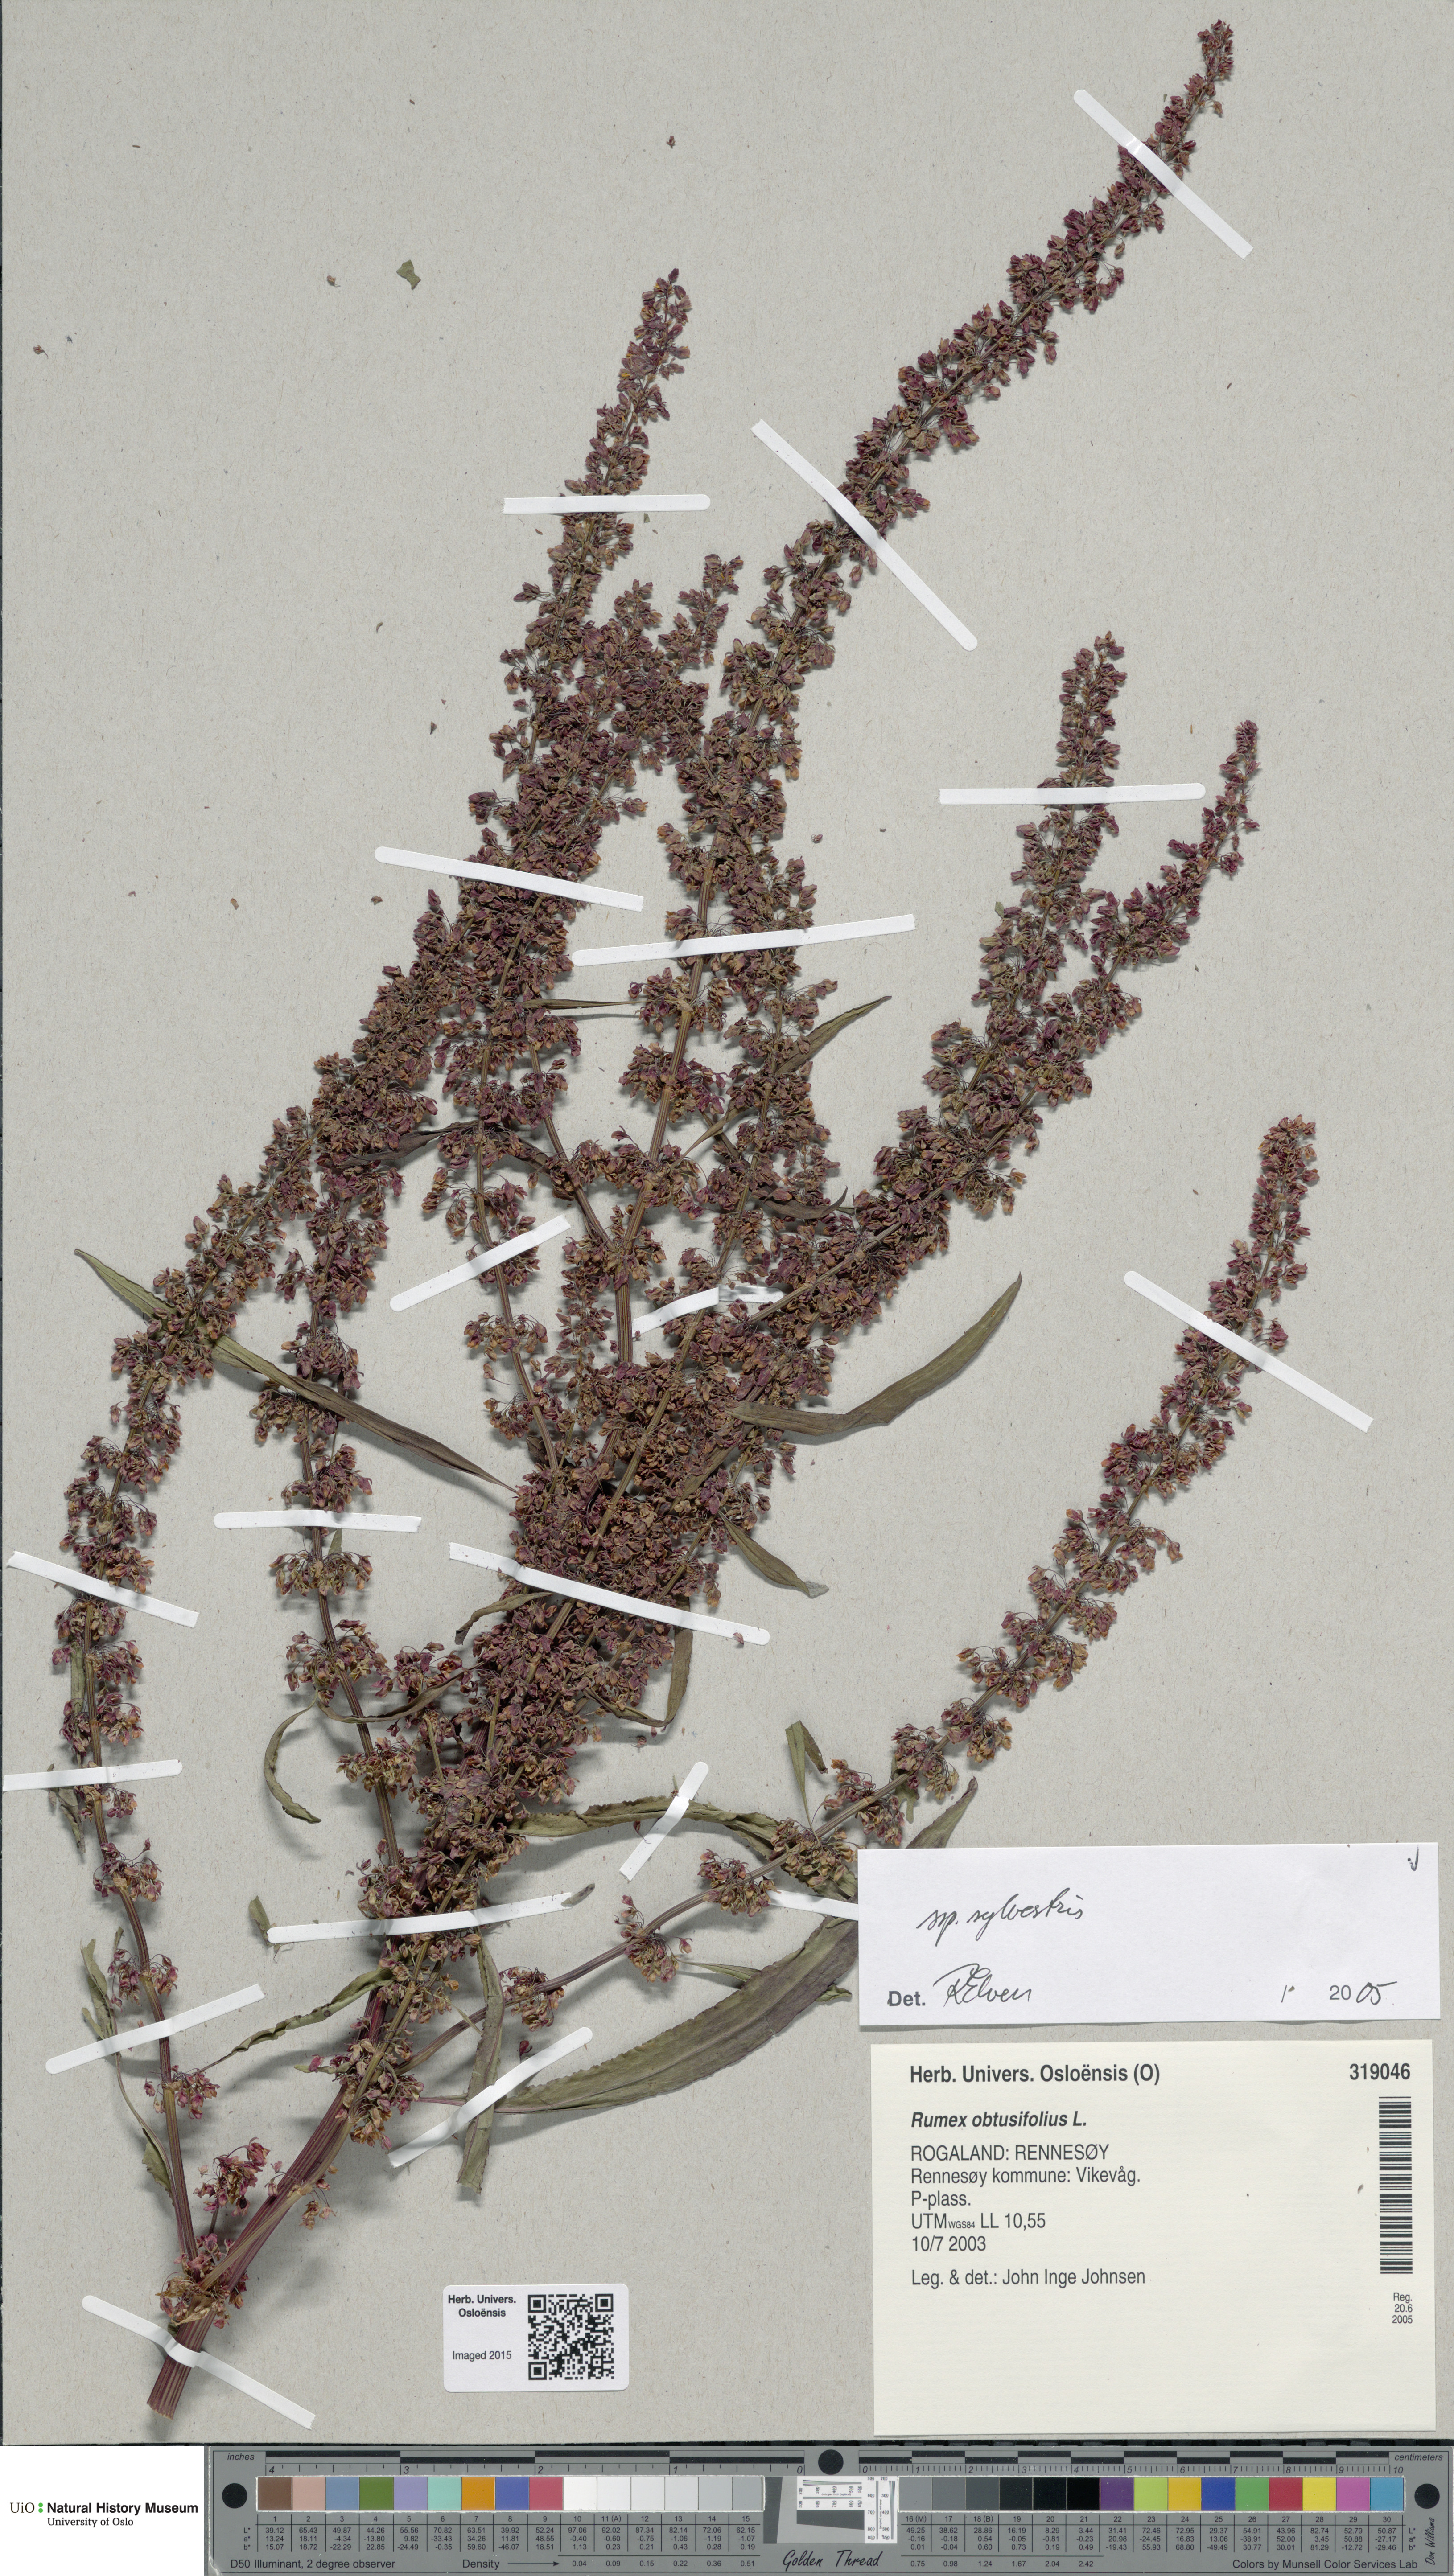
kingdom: Plantae
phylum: Tracheophyta
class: Magnoliopsida
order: Caryophyllales
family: Polygonaceae
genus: Rumex
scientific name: Rumex obtusifolius
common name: Bitter dock
